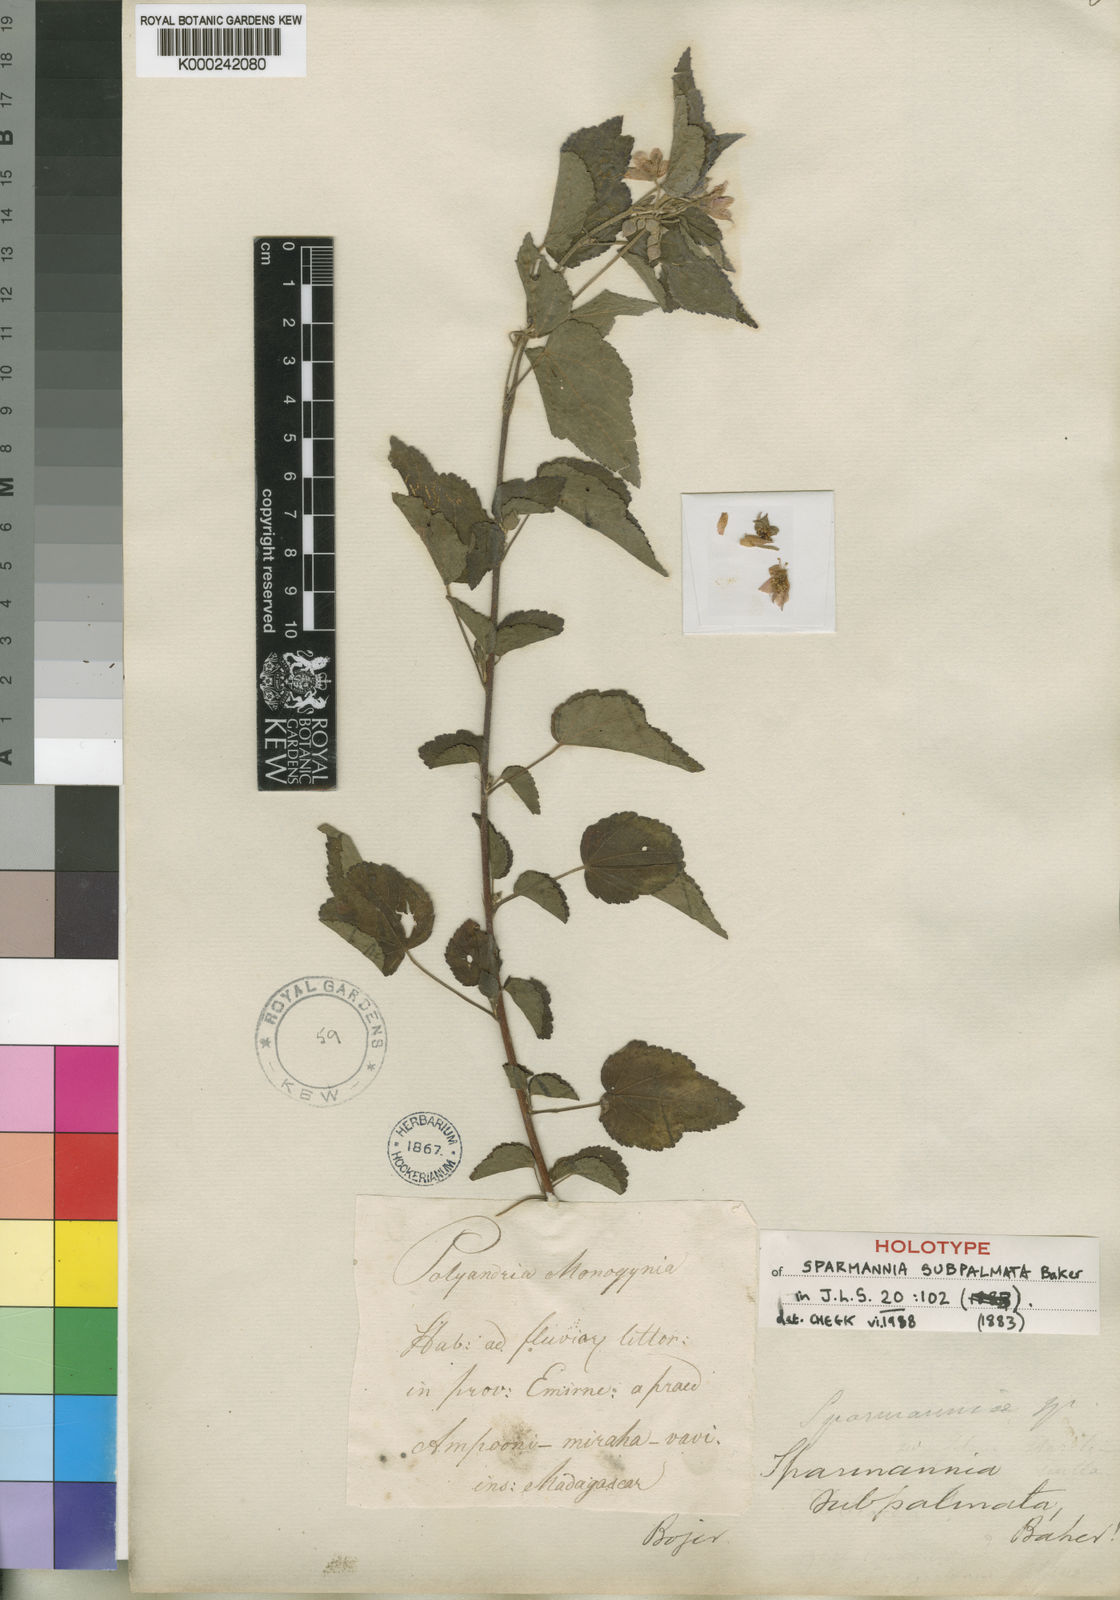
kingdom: Plantae
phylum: Tracheophyta
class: Magnoliopsida
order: Malvales
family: Malvaceae
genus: Sparrmannia
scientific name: Sparrmannia subpalmata
